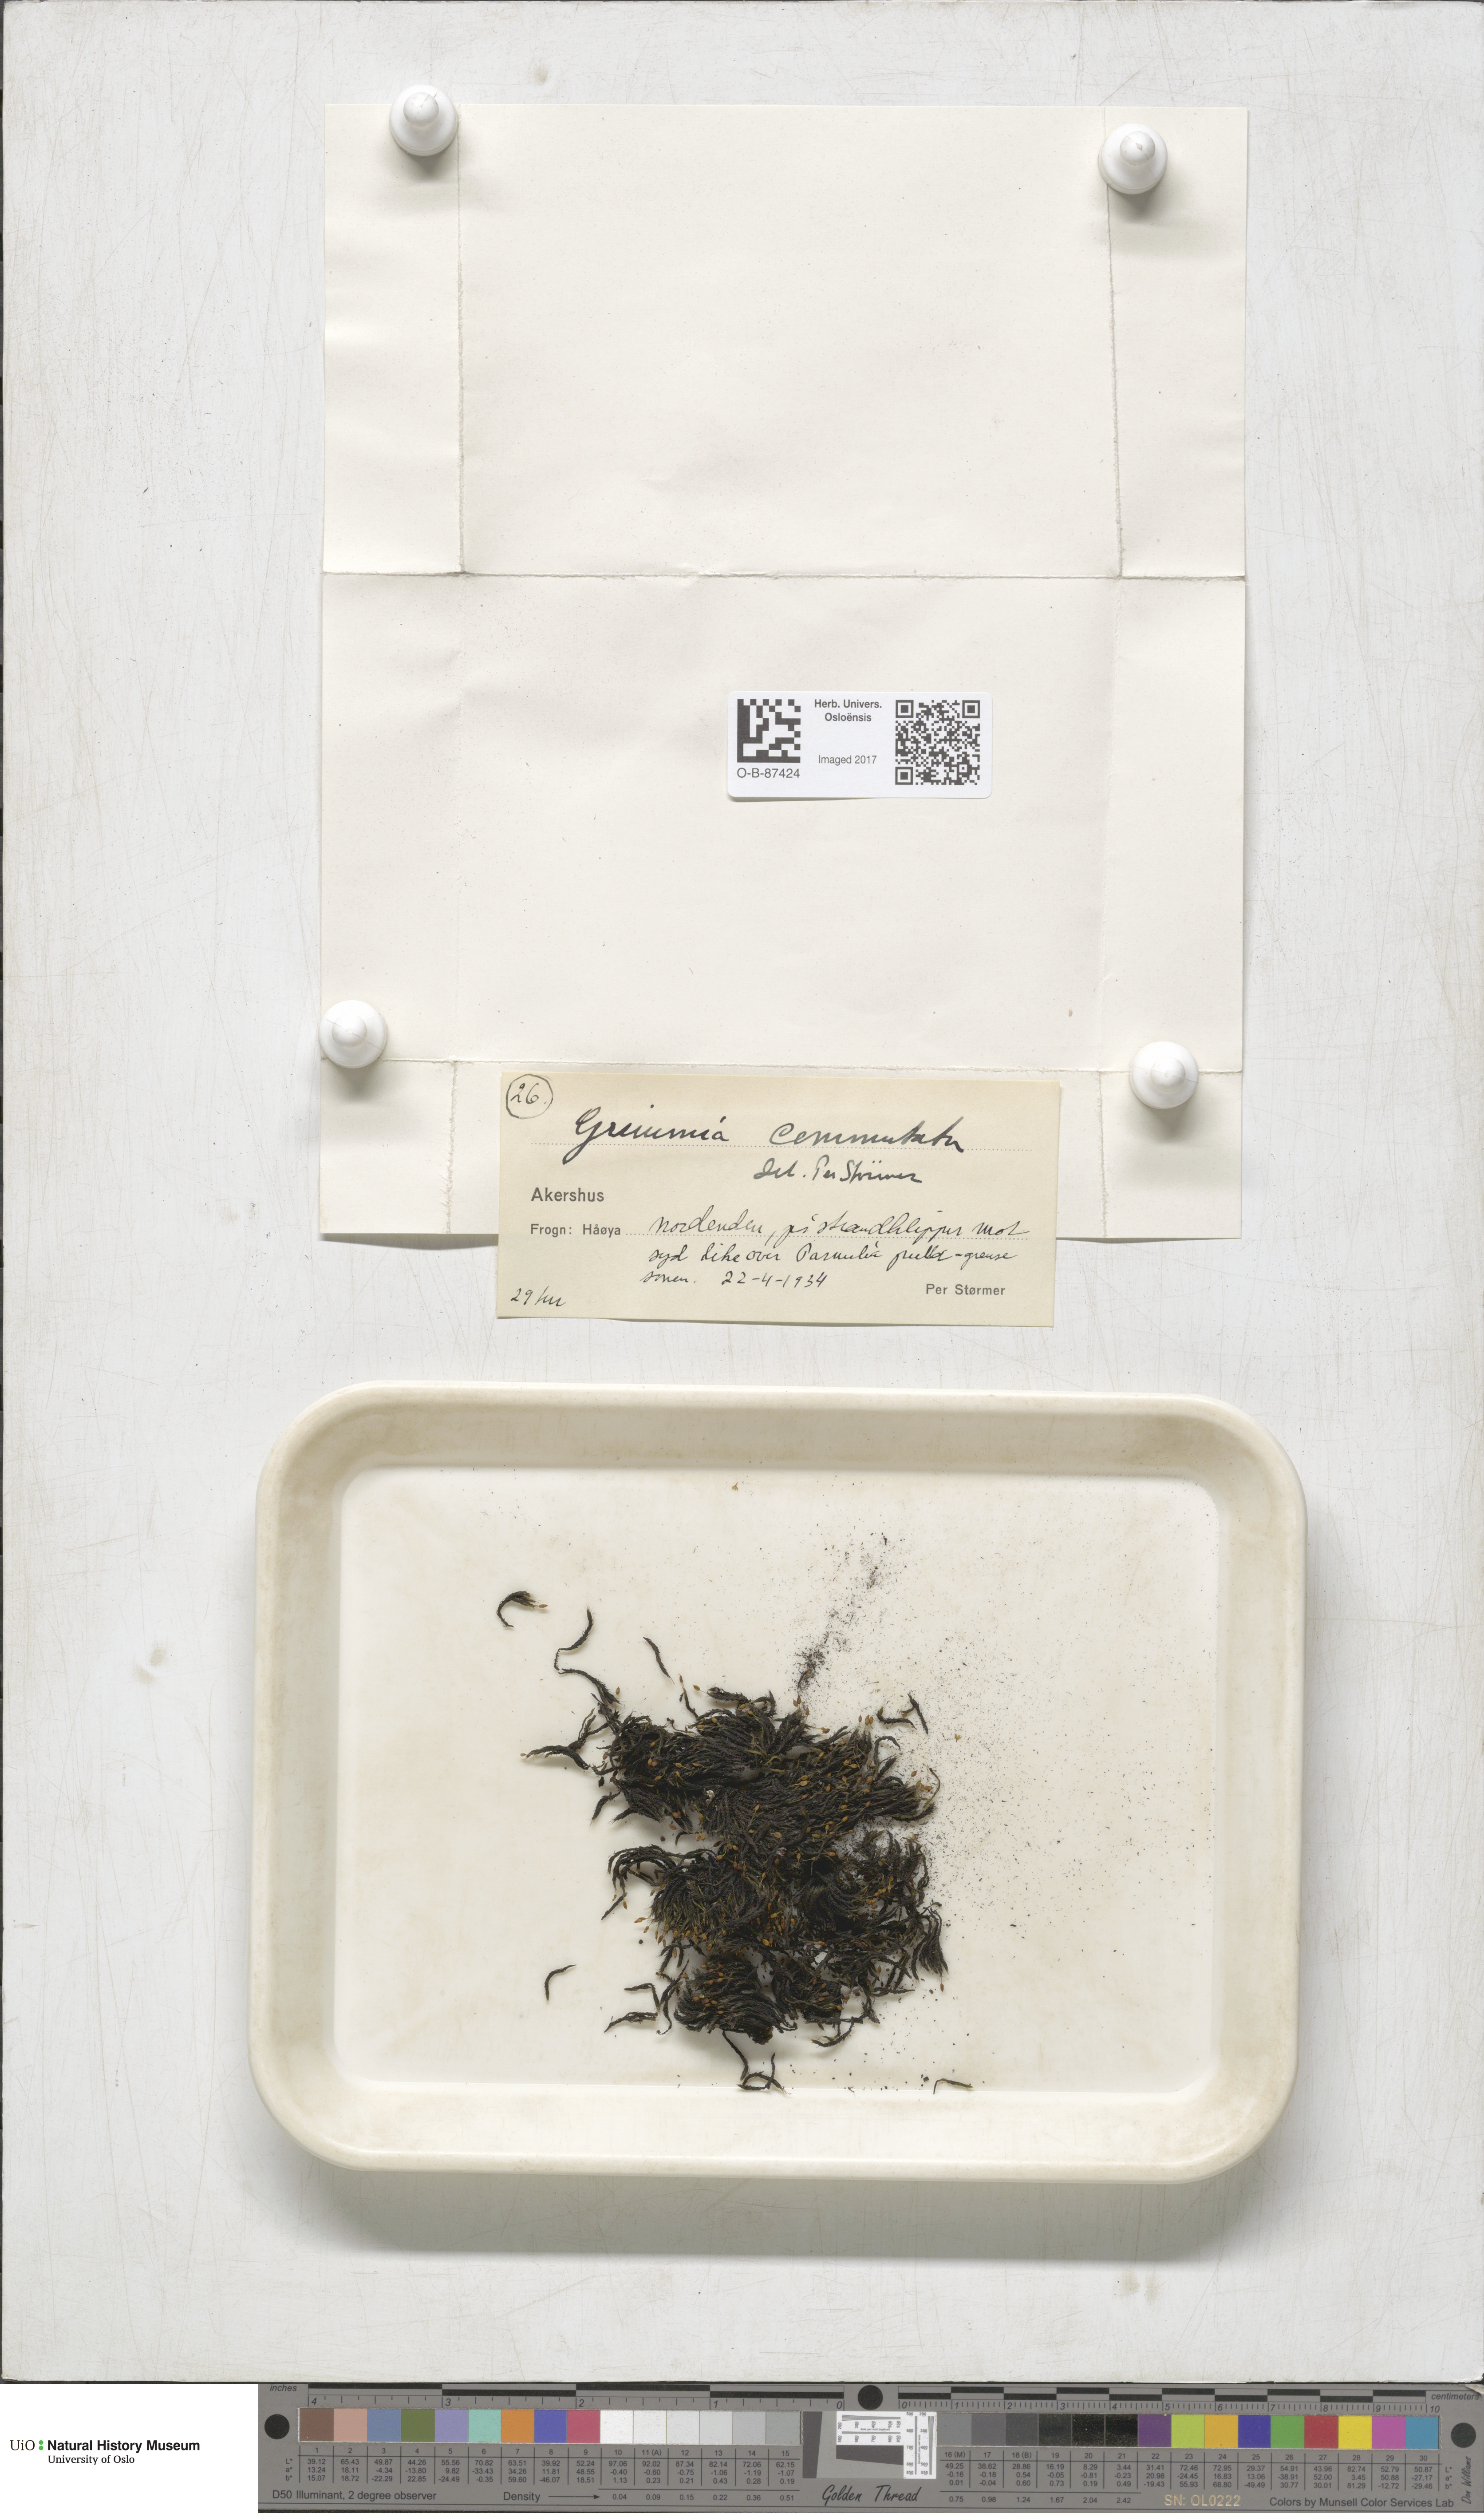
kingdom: Plantae
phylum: Bryophyta
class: Bryopsida
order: Grimmiales
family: Grimmiaceae
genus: Grimmia
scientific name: Grimmia ovalis
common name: Oval grimmia
